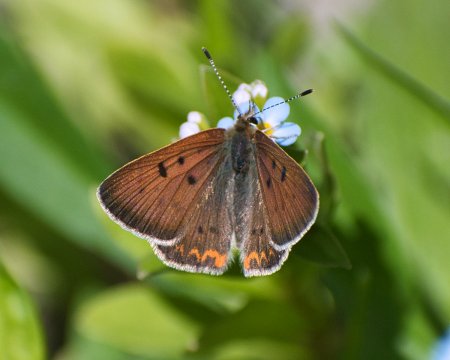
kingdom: Animalia
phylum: Arthropoda
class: Insecta
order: Lepidoptera
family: Sesiidae
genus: Sesia
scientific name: Sesia Lycaena helloides
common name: Purplish Copper
